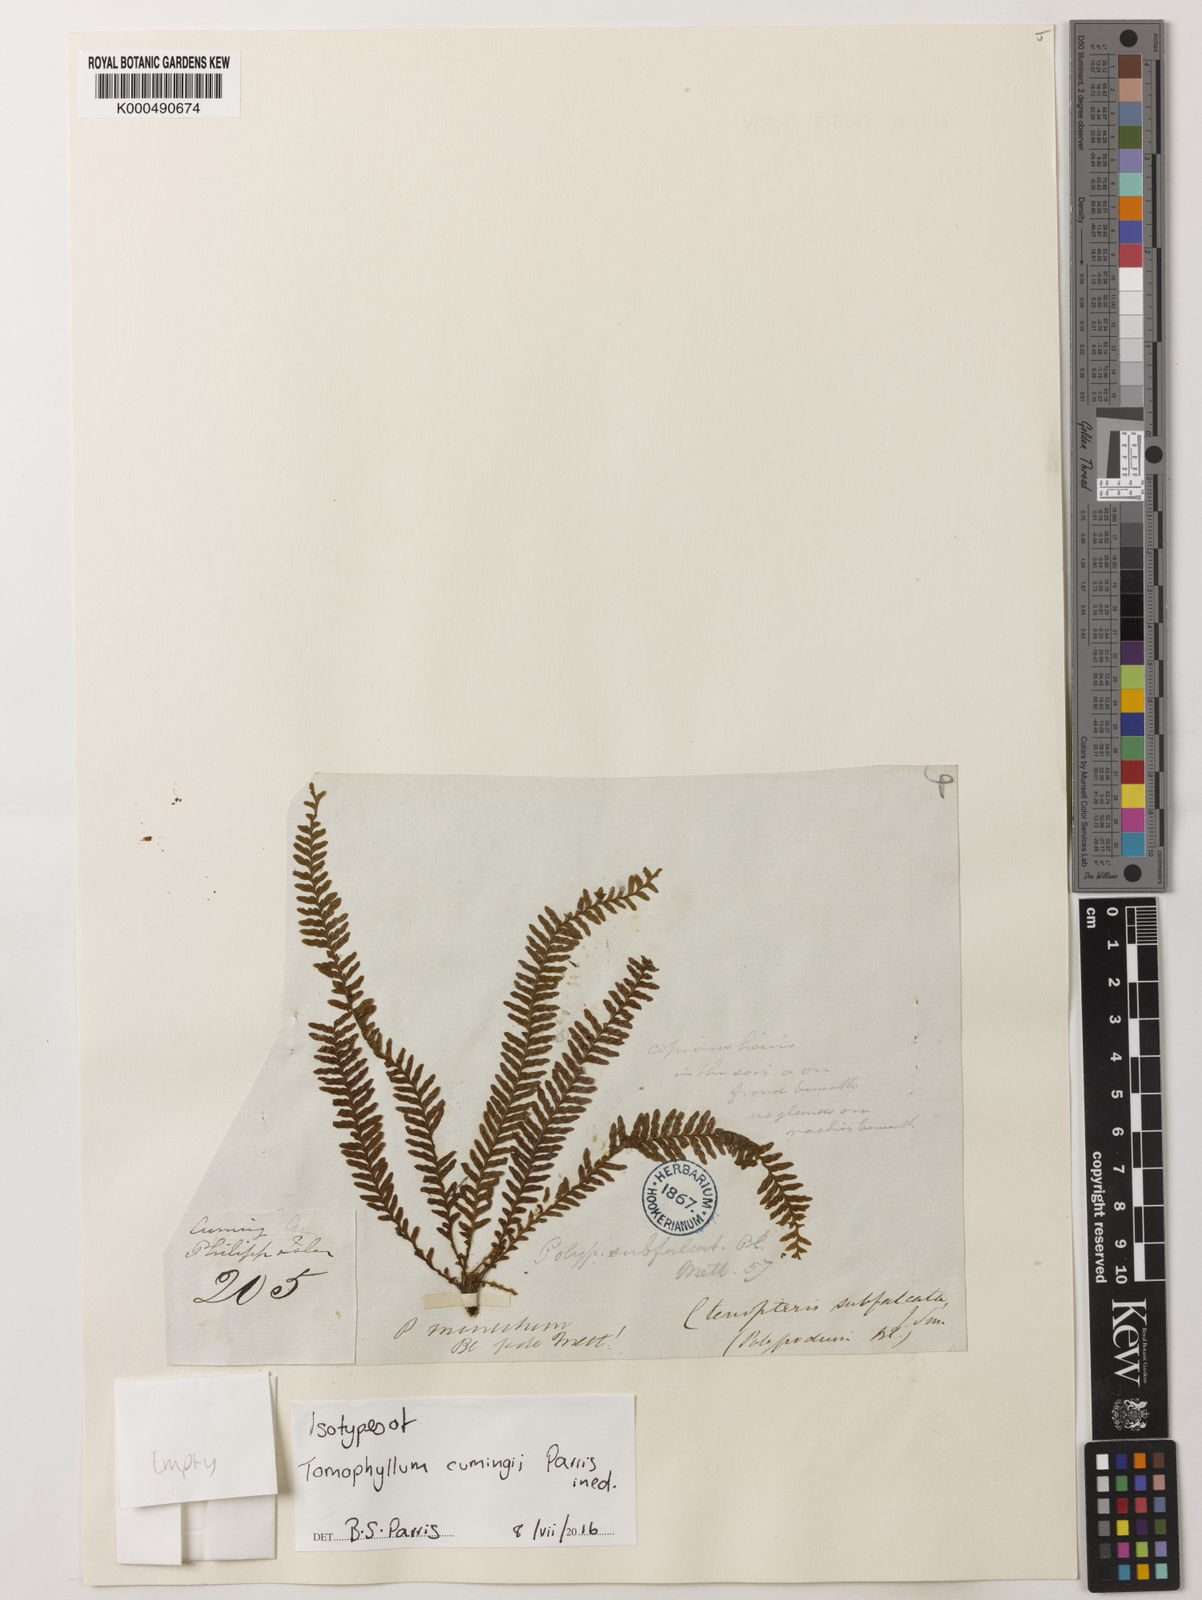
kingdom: Plantae
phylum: Tracheophyta
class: Polypodiopsida
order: Polypodiales
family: Polypodiaceae
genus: Tomophyllum
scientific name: Tomophyllum
